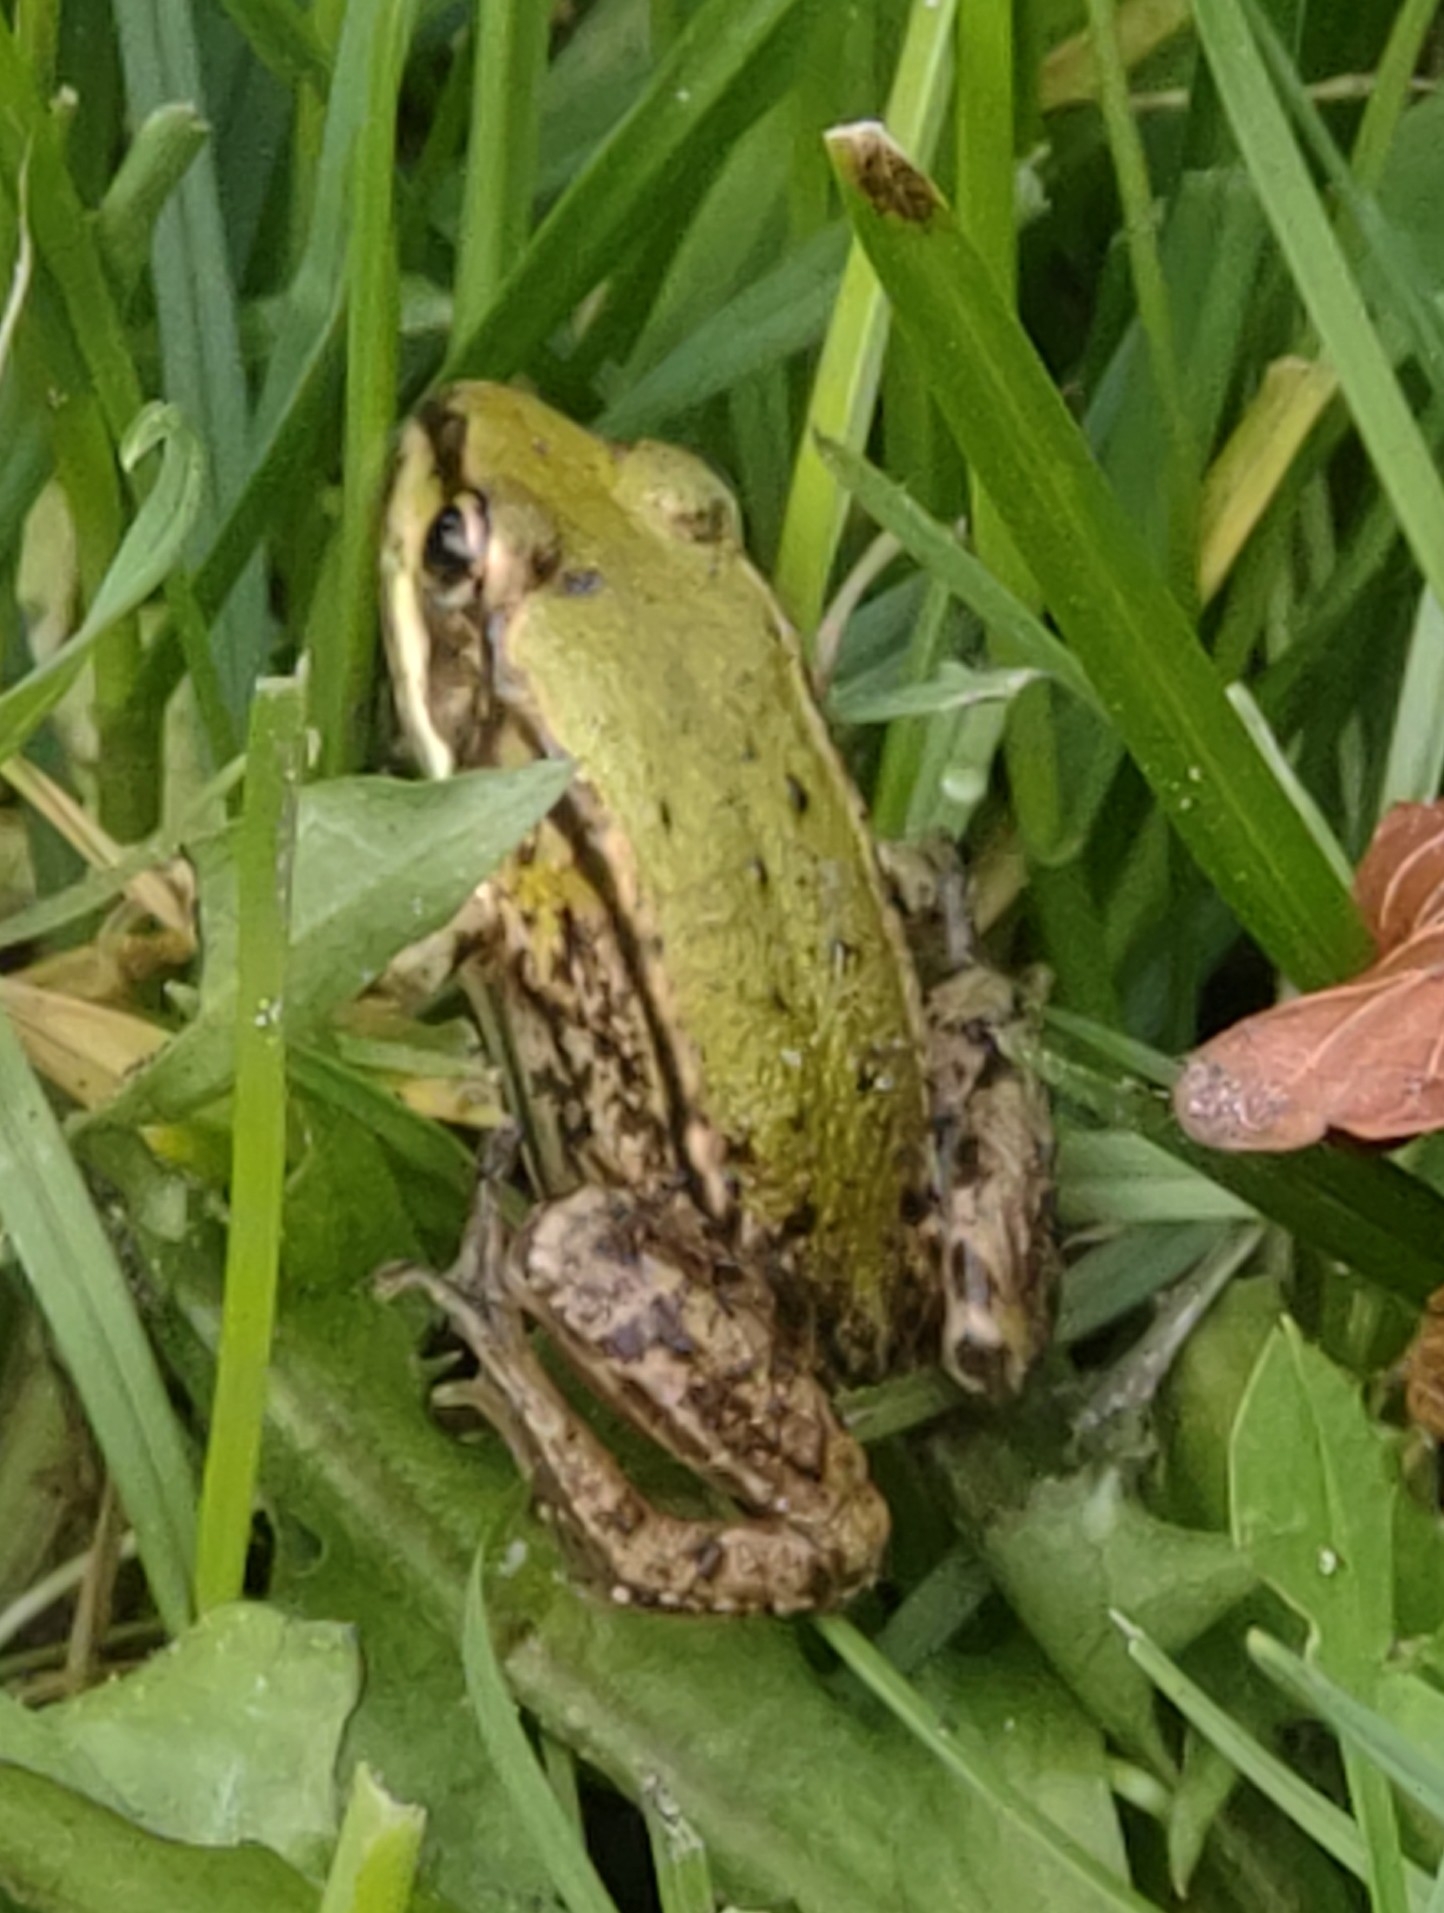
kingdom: Animalia
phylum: Chordata
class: Amphibia
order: Anura
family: Ranidae
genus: Pelophylax
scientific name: Pelophylax lessonae
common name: Grøn frø
